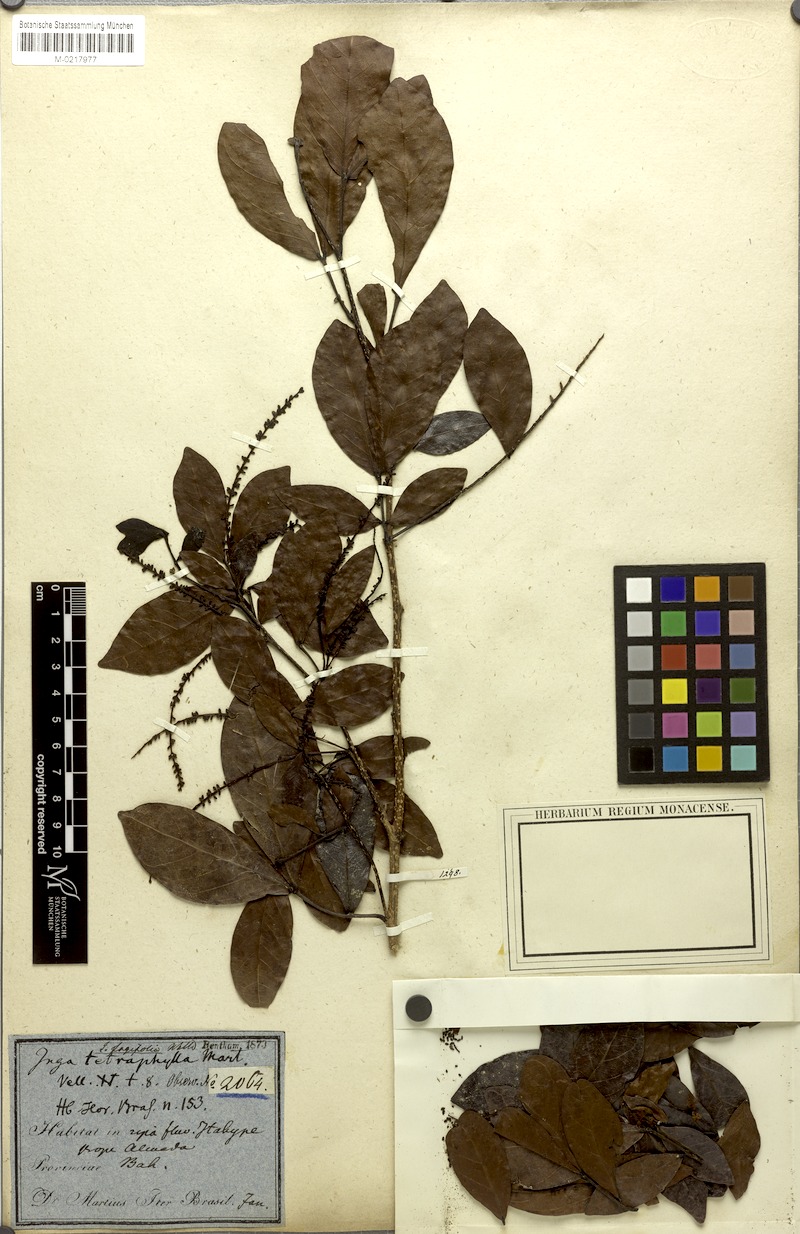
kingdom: Plantae
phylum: Tracheophyta
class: Magnoliopsida
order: Fabales
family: Fabaceae
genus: Inga
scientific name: Inga laurina
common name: Red wood
